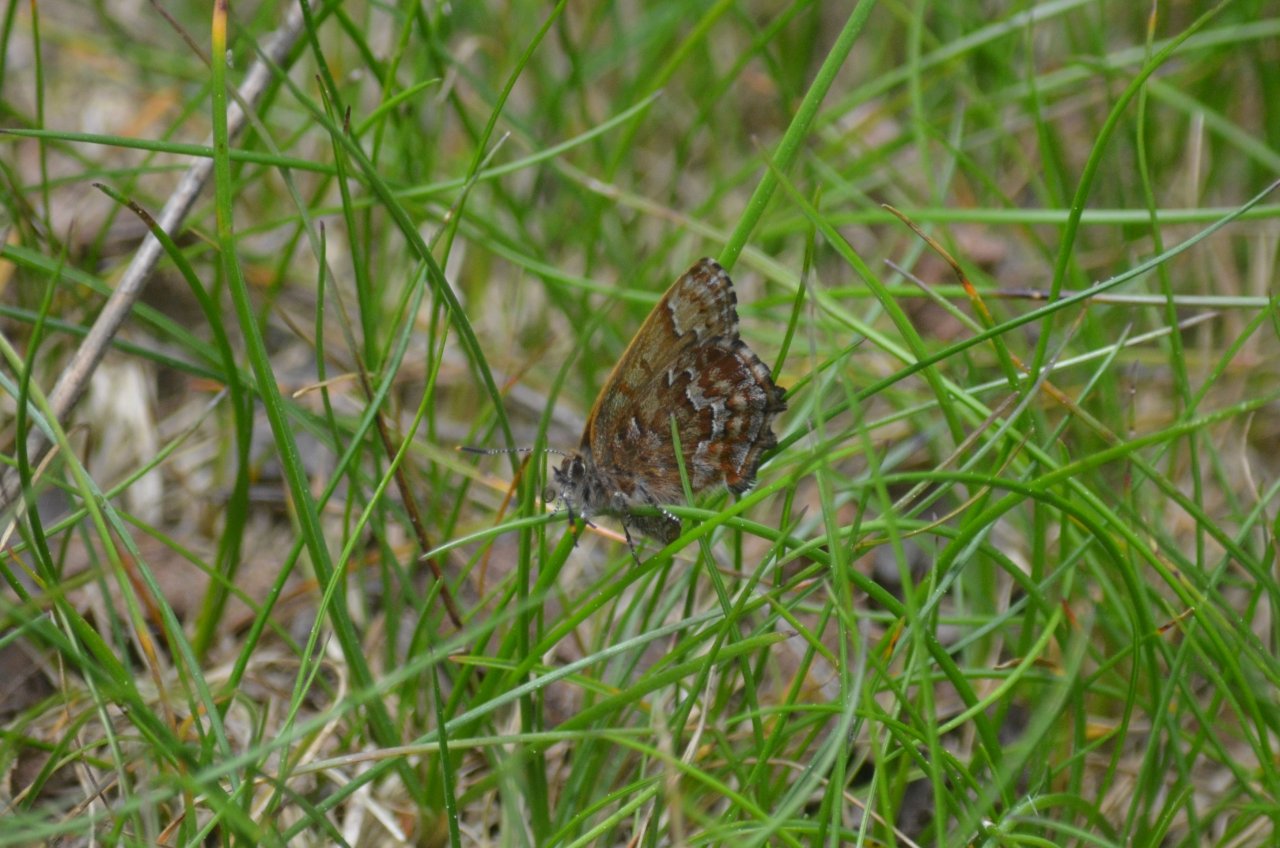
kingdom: Animalia
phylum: Arthropoda
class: Insecta
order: Lepidoptera
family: Lycaenidae
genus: Incisalia
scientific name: Incisalia niphon
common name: Eastern Pine Elfin
